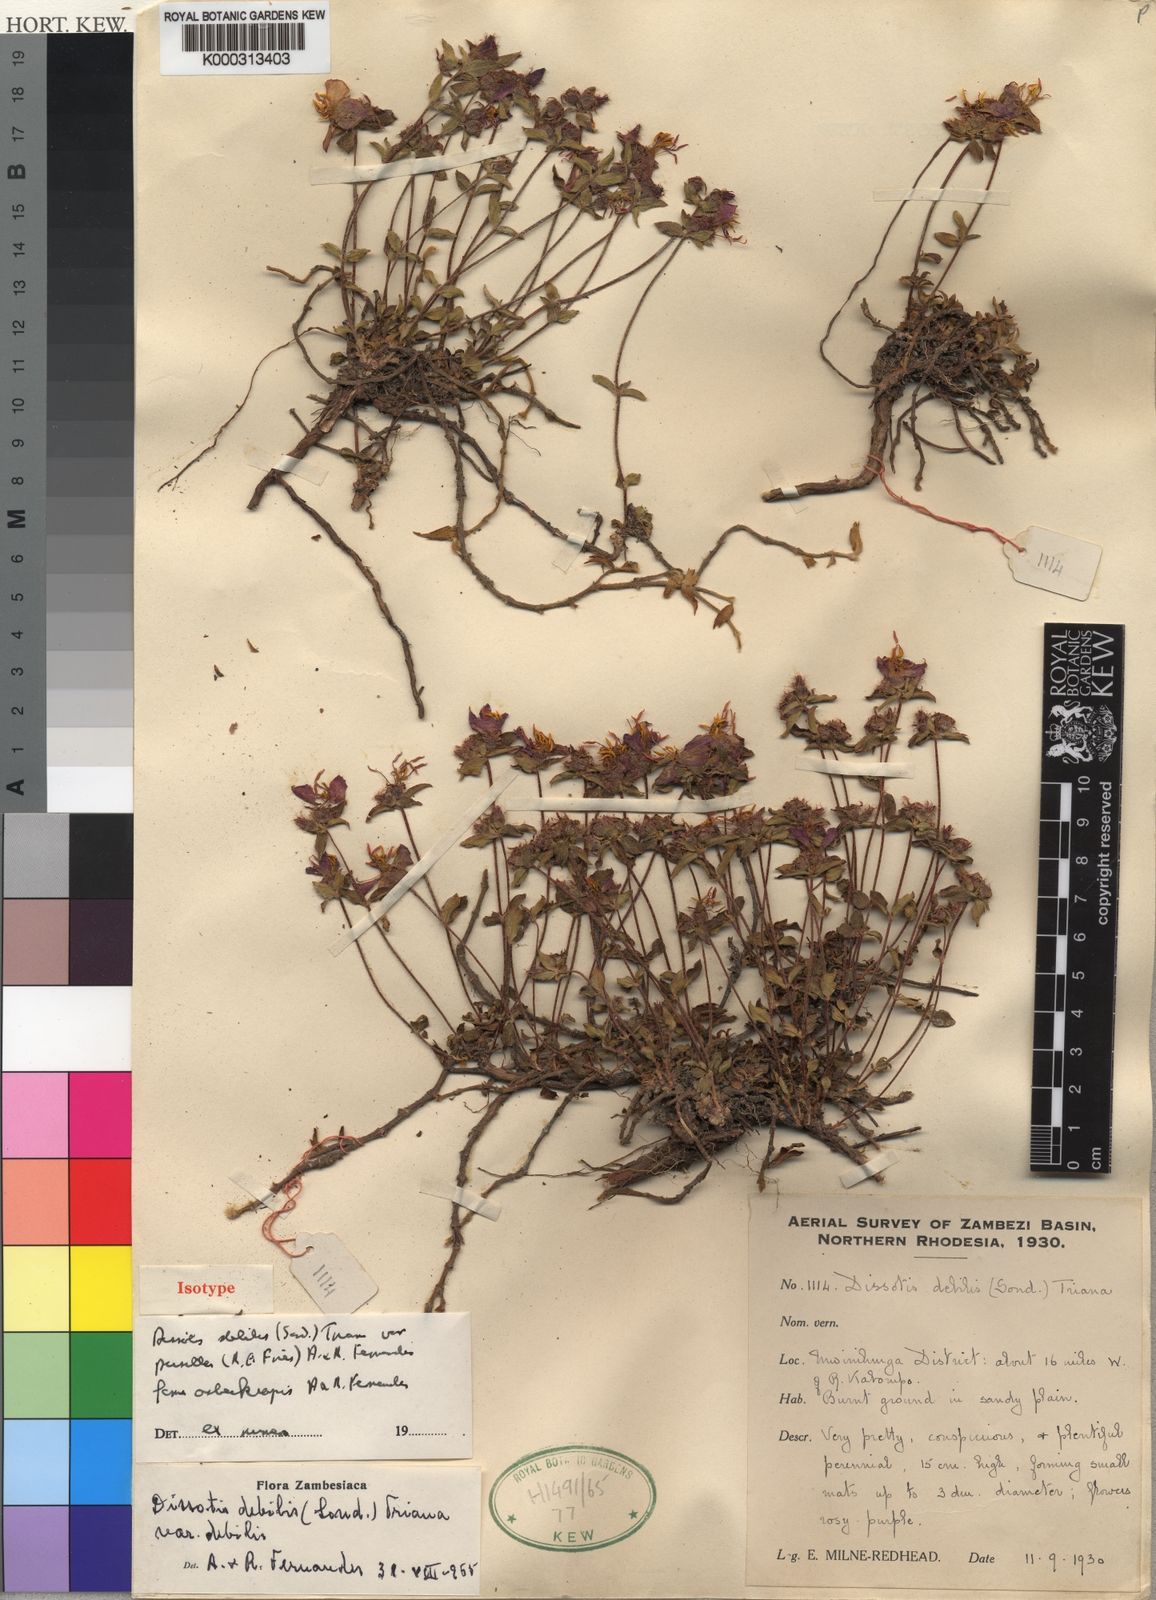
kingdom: Plantae
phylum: Tracheophyta
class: Magnoliopsida
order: Myrtales
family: Melastomataceae
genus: Antherotoma
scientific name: Antherotoma
